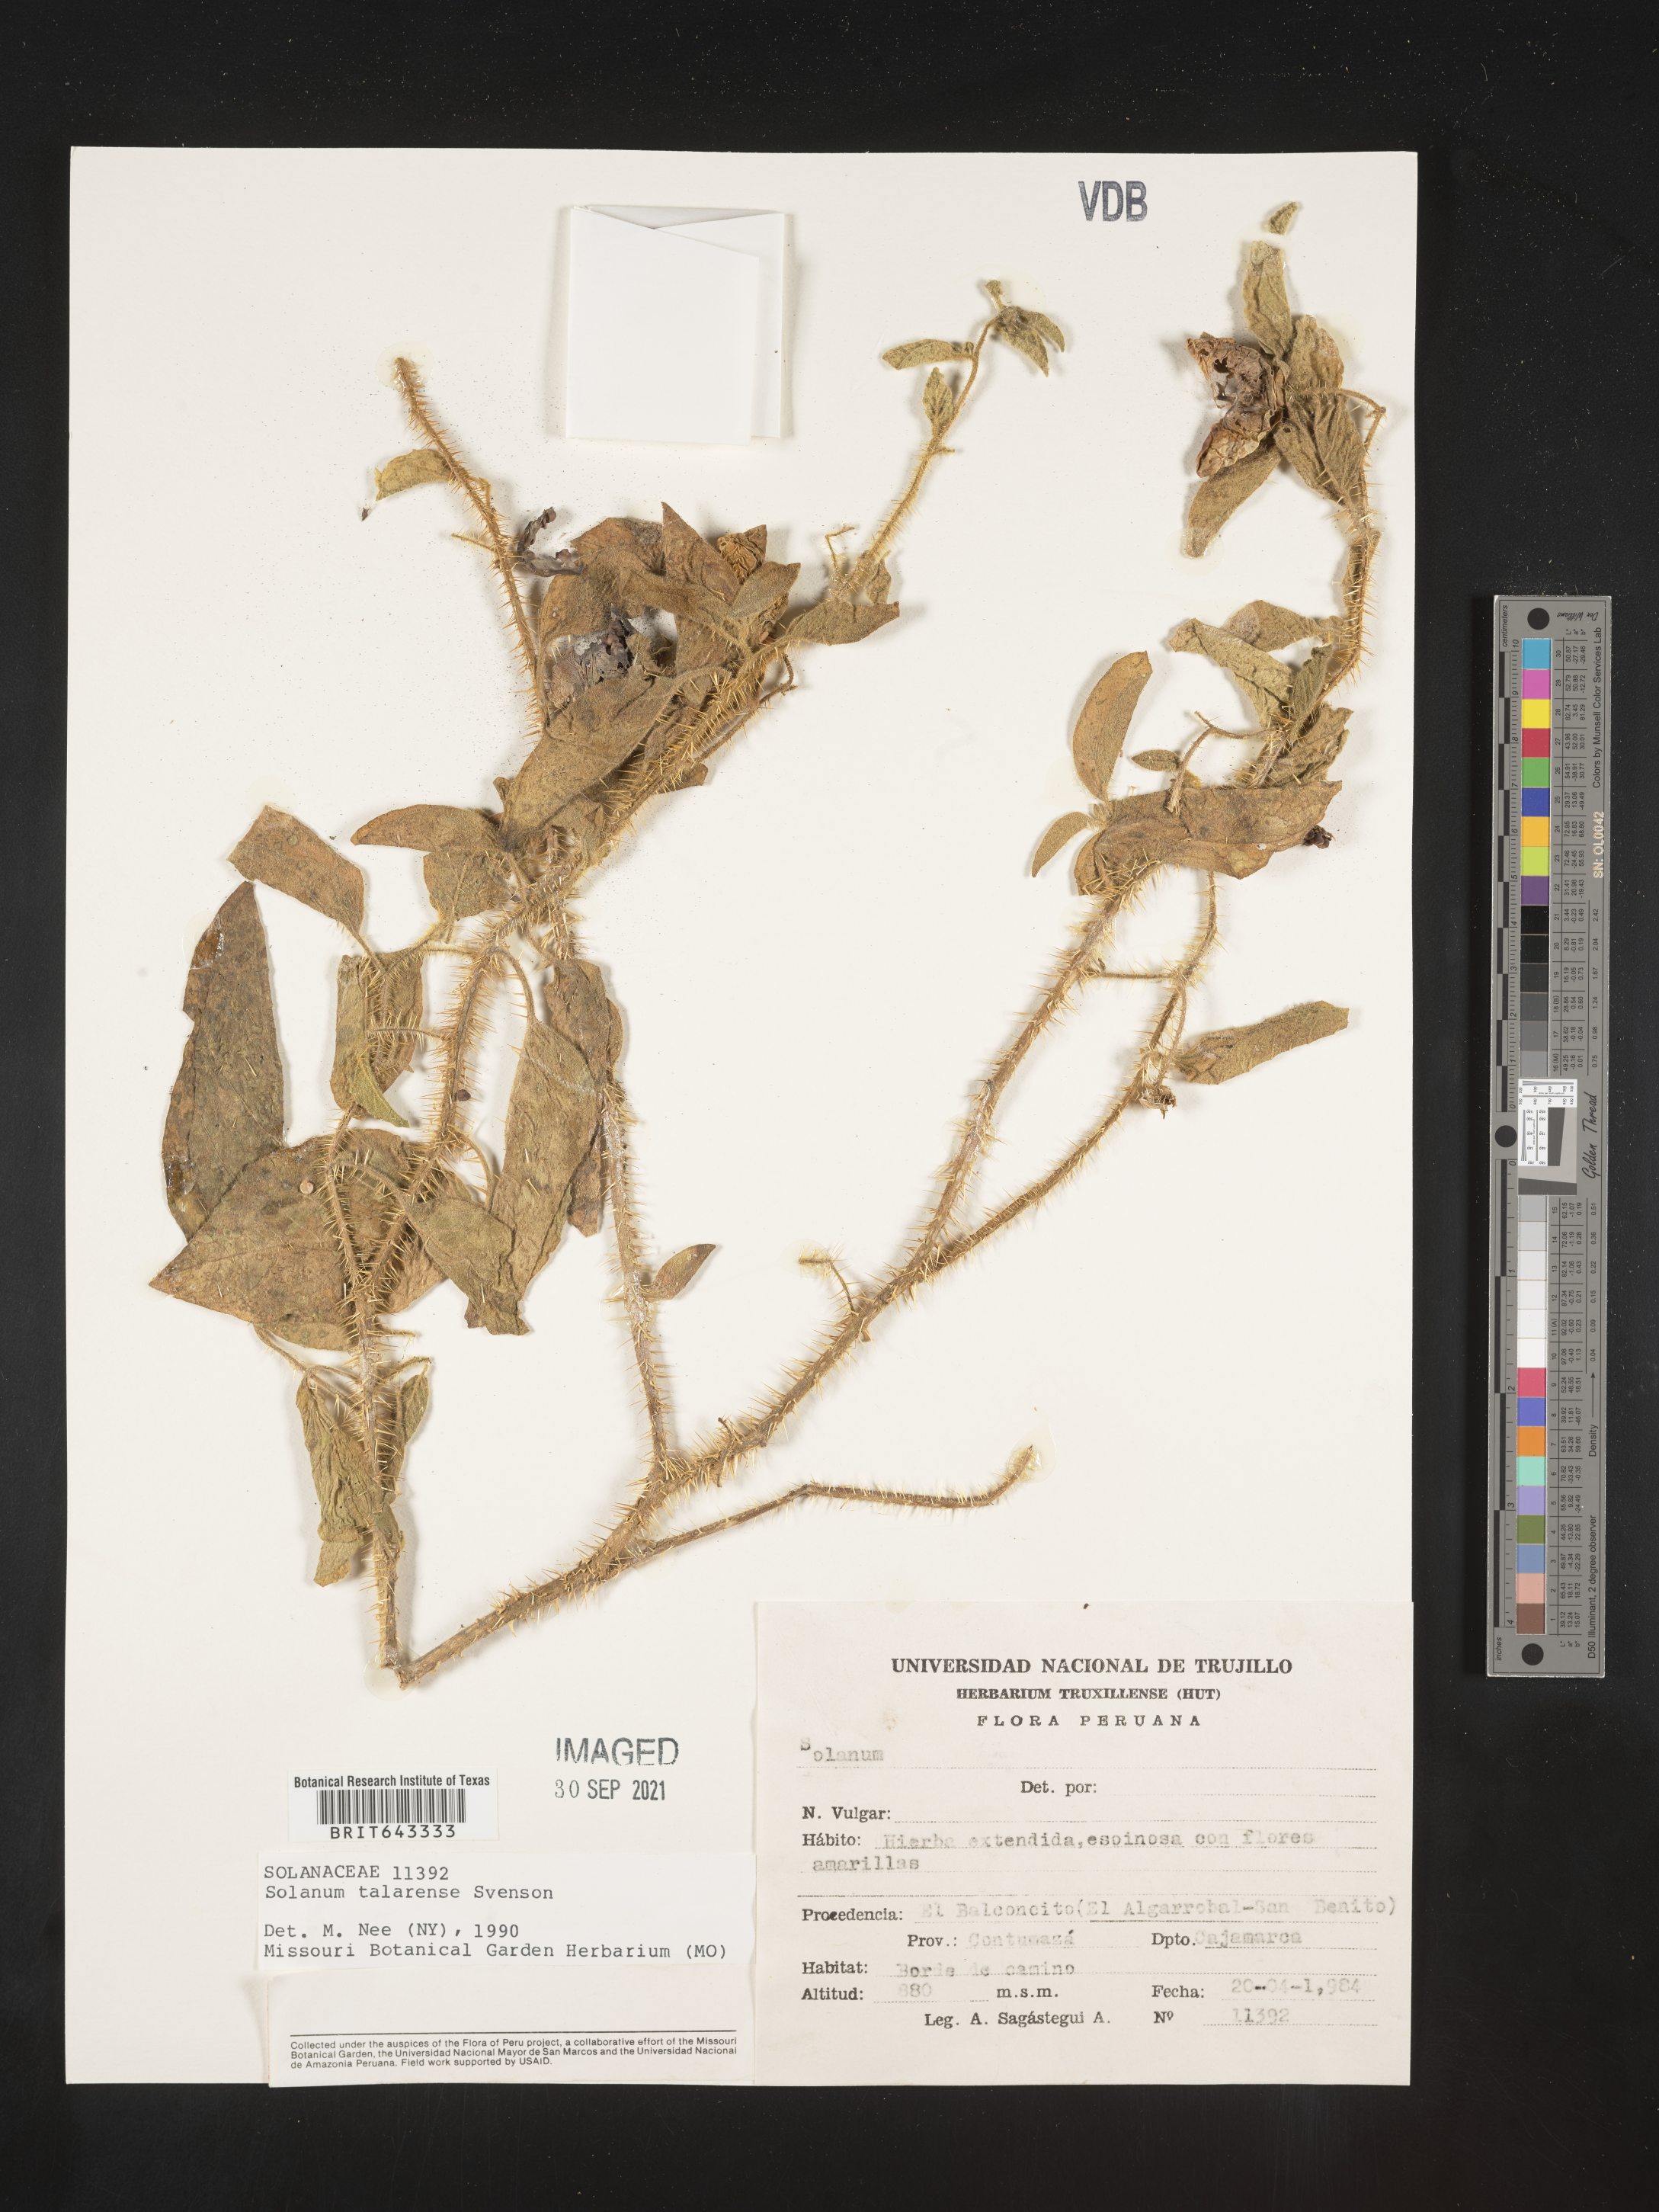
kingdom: Plantae
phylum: Tracheophyta
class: Magnoliopsida
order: Solanales
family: Solanaceae
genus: Solanum
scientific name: Solanum
